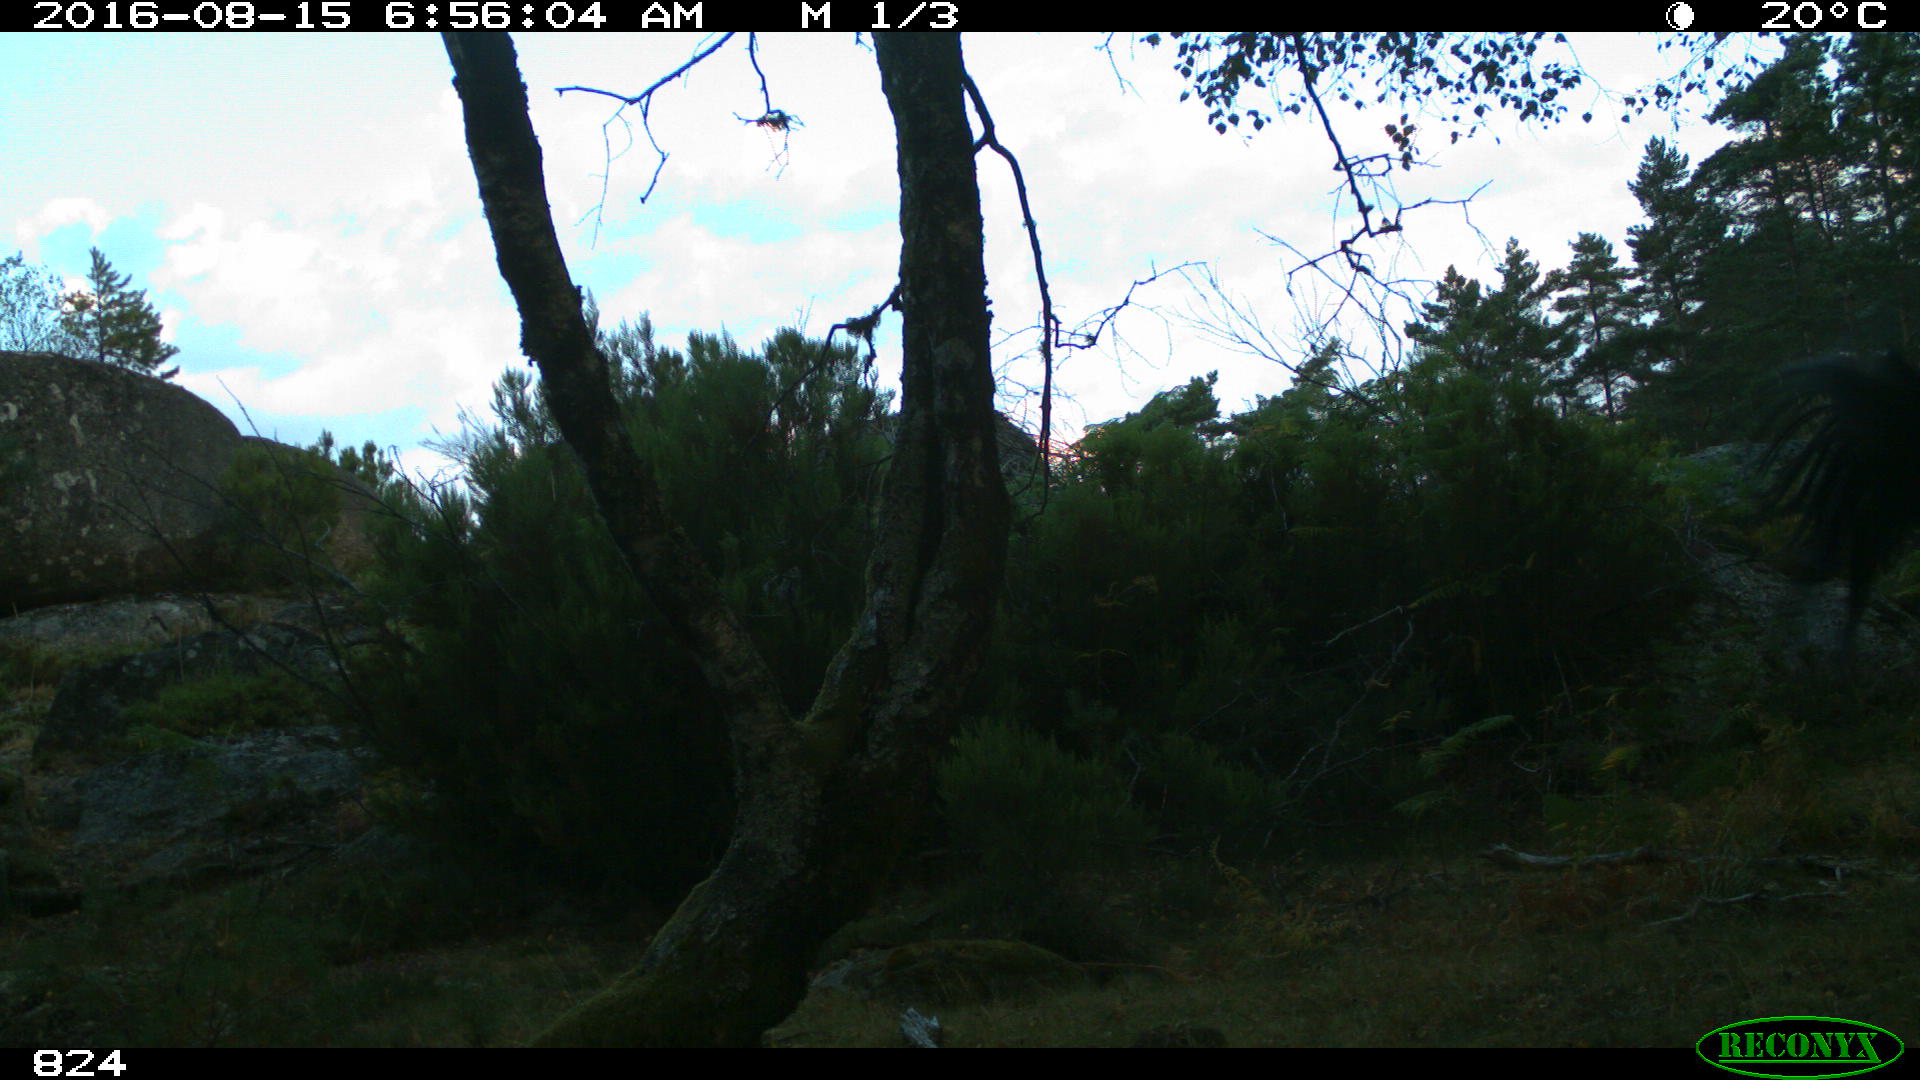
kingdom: Animalia
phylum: Chordata
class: Mammalia
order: Perissodactyla
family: Equidae
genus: Equus
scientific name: Equus caballus
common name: Horse
